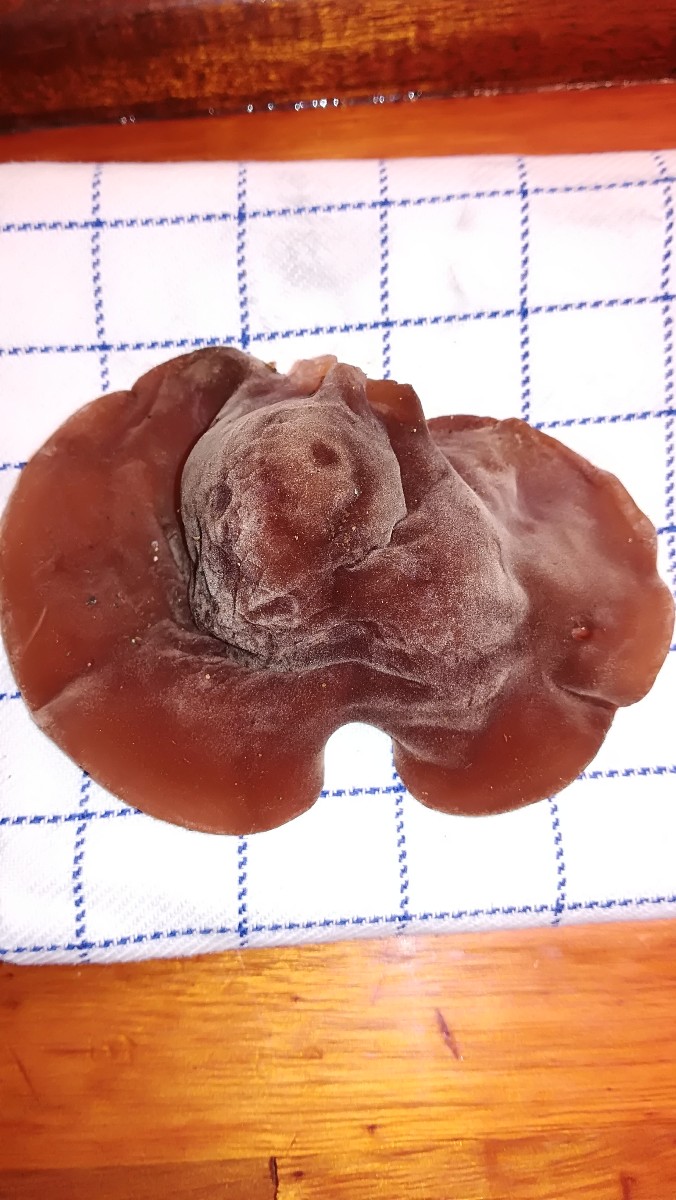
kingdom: Fungi
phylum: Basidiomycota
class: Agaricomycetes
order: Auriculariales
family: Auriculariaceae
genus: Auricularia
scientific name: Auricularia auricula-judae
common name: almindelig judasøre
